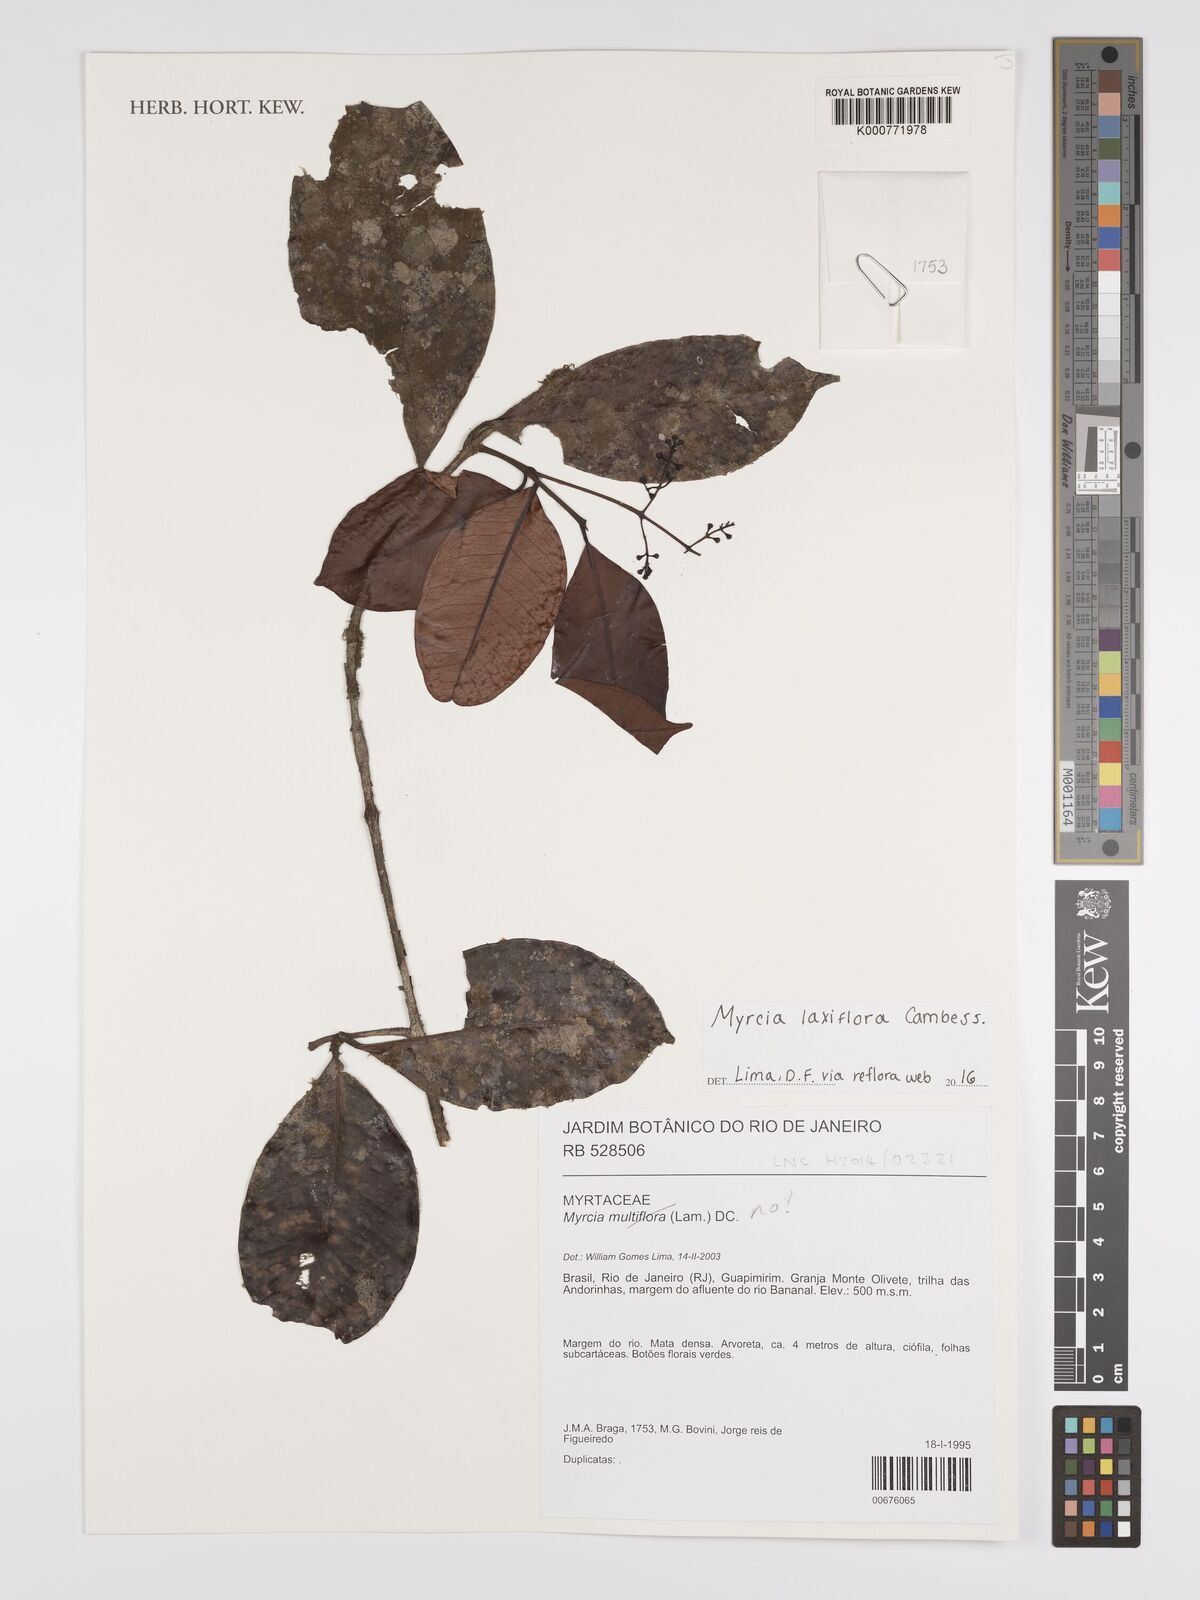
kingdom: Plantae
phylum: Tracheophyta
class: Magnoliopsida
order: Myrtales
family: Myrtaceae
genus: Myrcia
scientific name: Myrcia laxiflora
